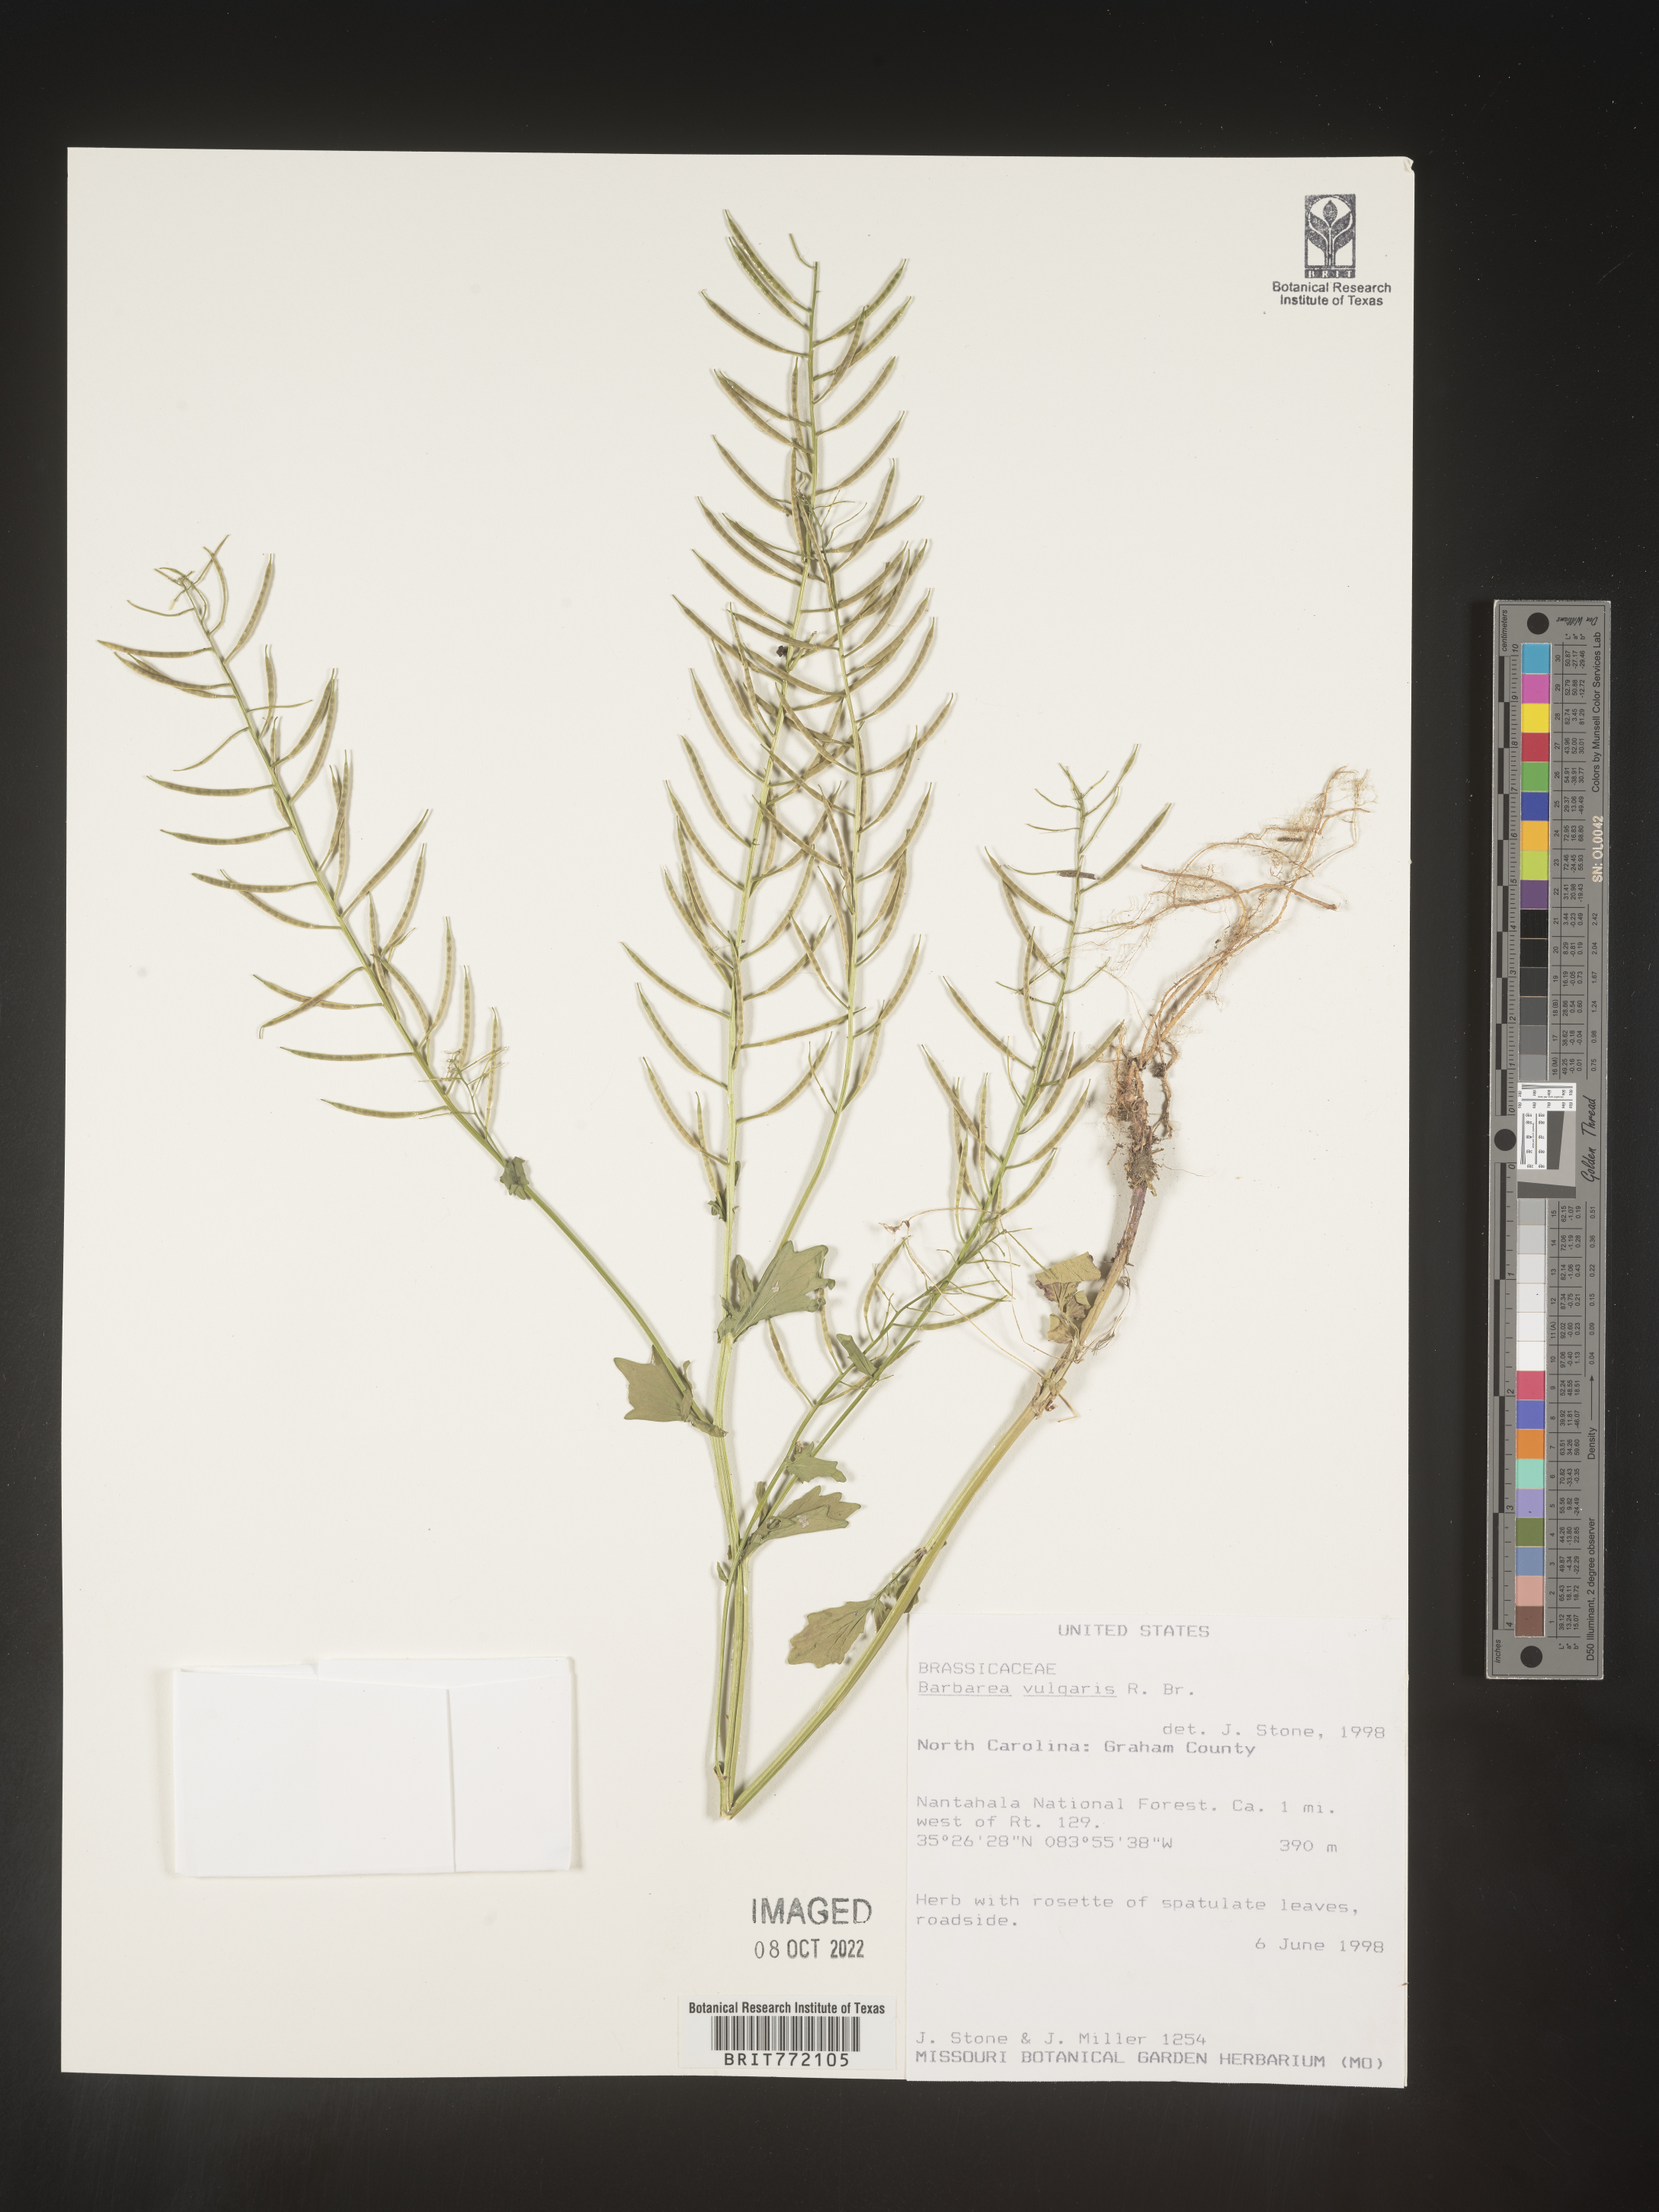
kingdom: Plantae
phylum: Tracheophyta
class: Magnoliopsida
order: Brassicales
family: Brassicaceae
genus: Barbarea
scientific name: Barbarea vulgaris
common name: Cressy-greens
